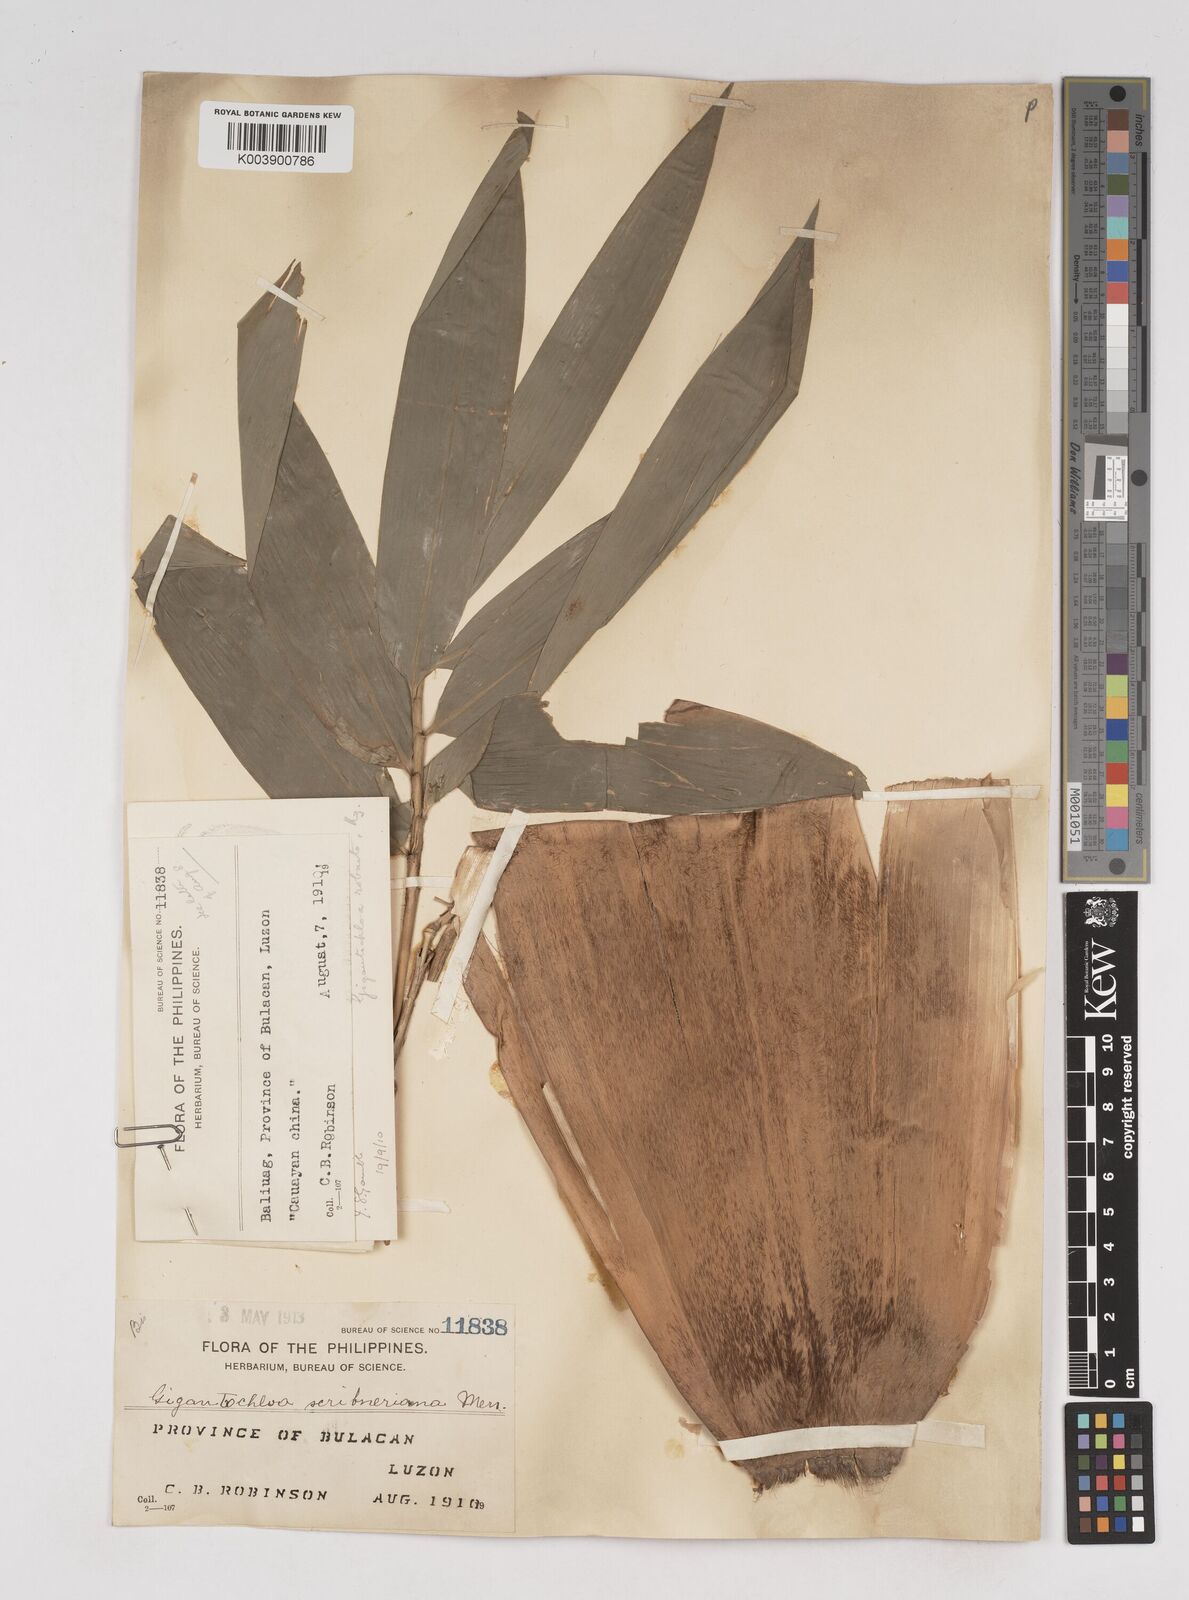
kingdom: Plantae
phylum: Tracheophyta
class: Liliopsida
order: Poales
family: Poaceae
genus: Gigantochloa
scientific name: Gigantochloa
